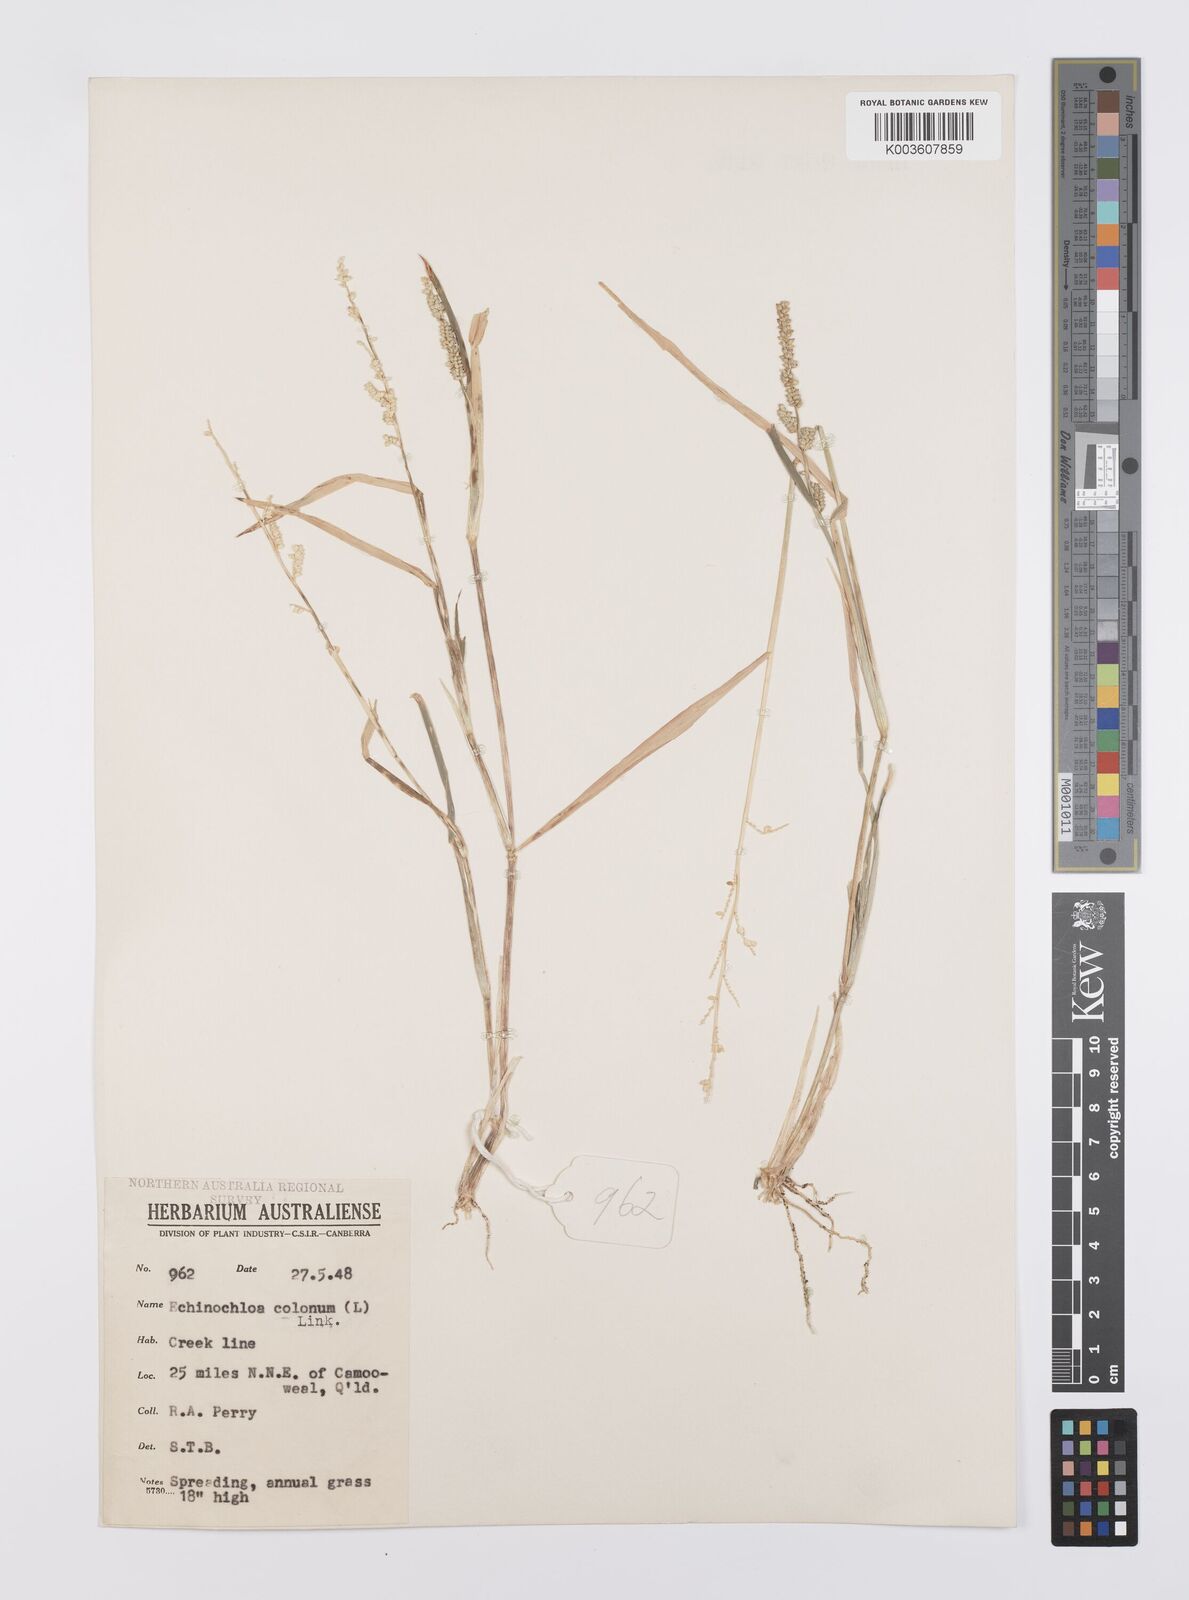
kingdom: Plantae
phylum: Tracheophyta
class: Liliopsida
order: Poales
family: Poaceae
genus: Echinochloa
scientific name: Echinochloa colonum
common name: Jungle rice
